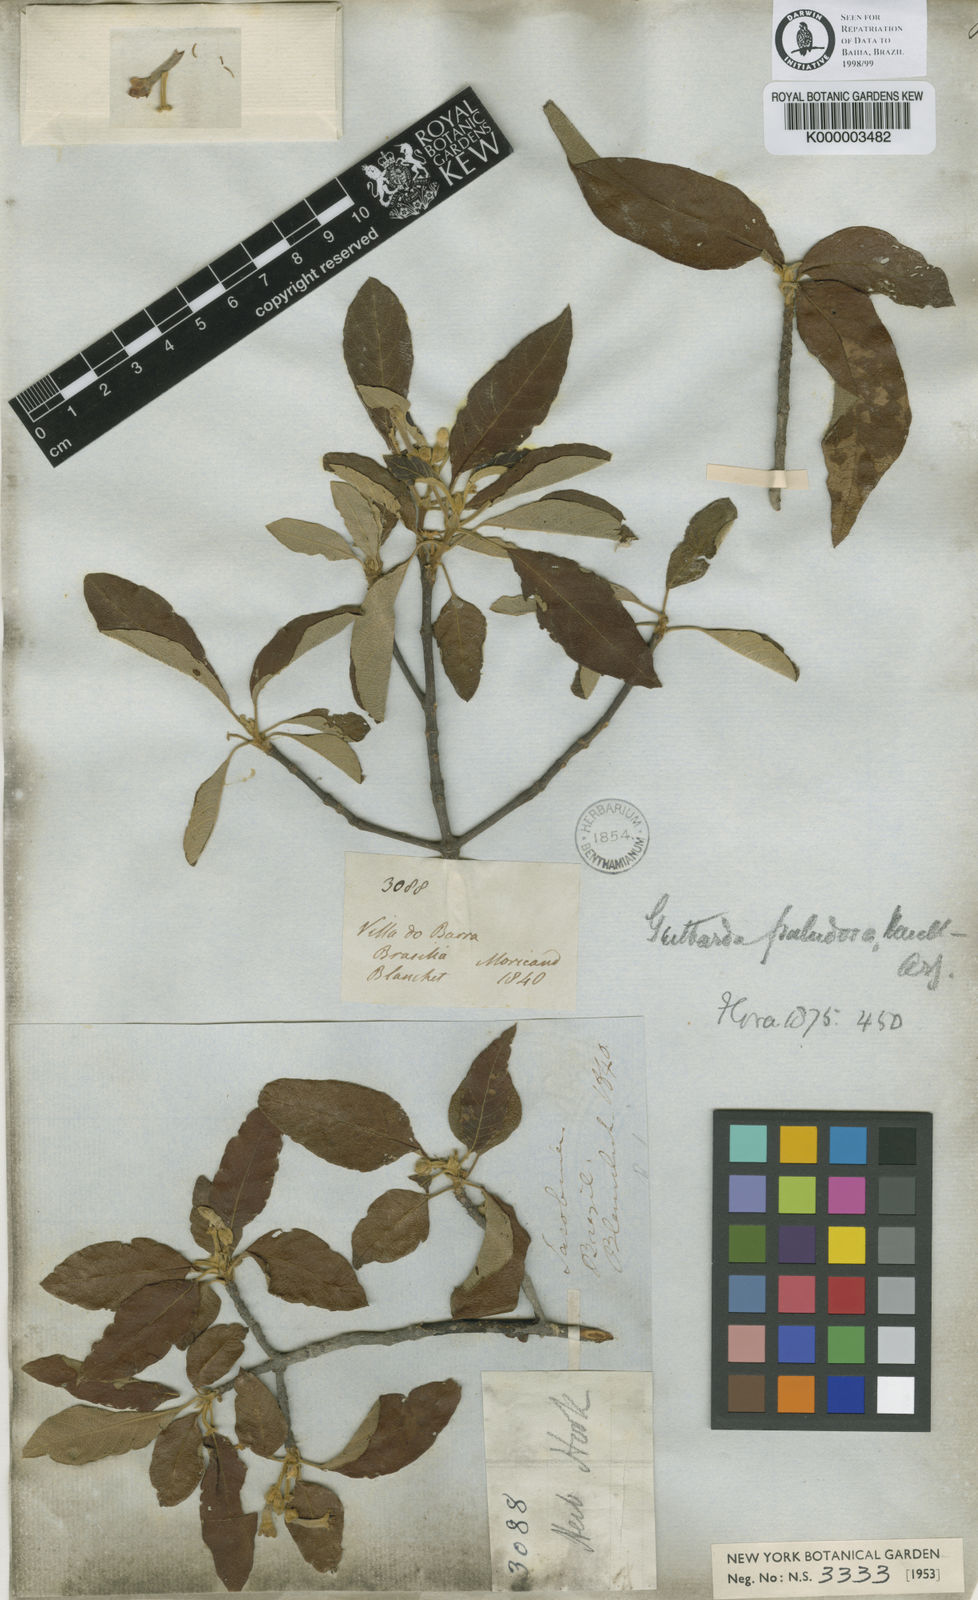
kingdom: Plantae
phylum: Tracheophyta
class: Magnoliopsida
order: Gentianales
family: Rubiaceae
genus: Guettarda
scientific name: Guettarda
